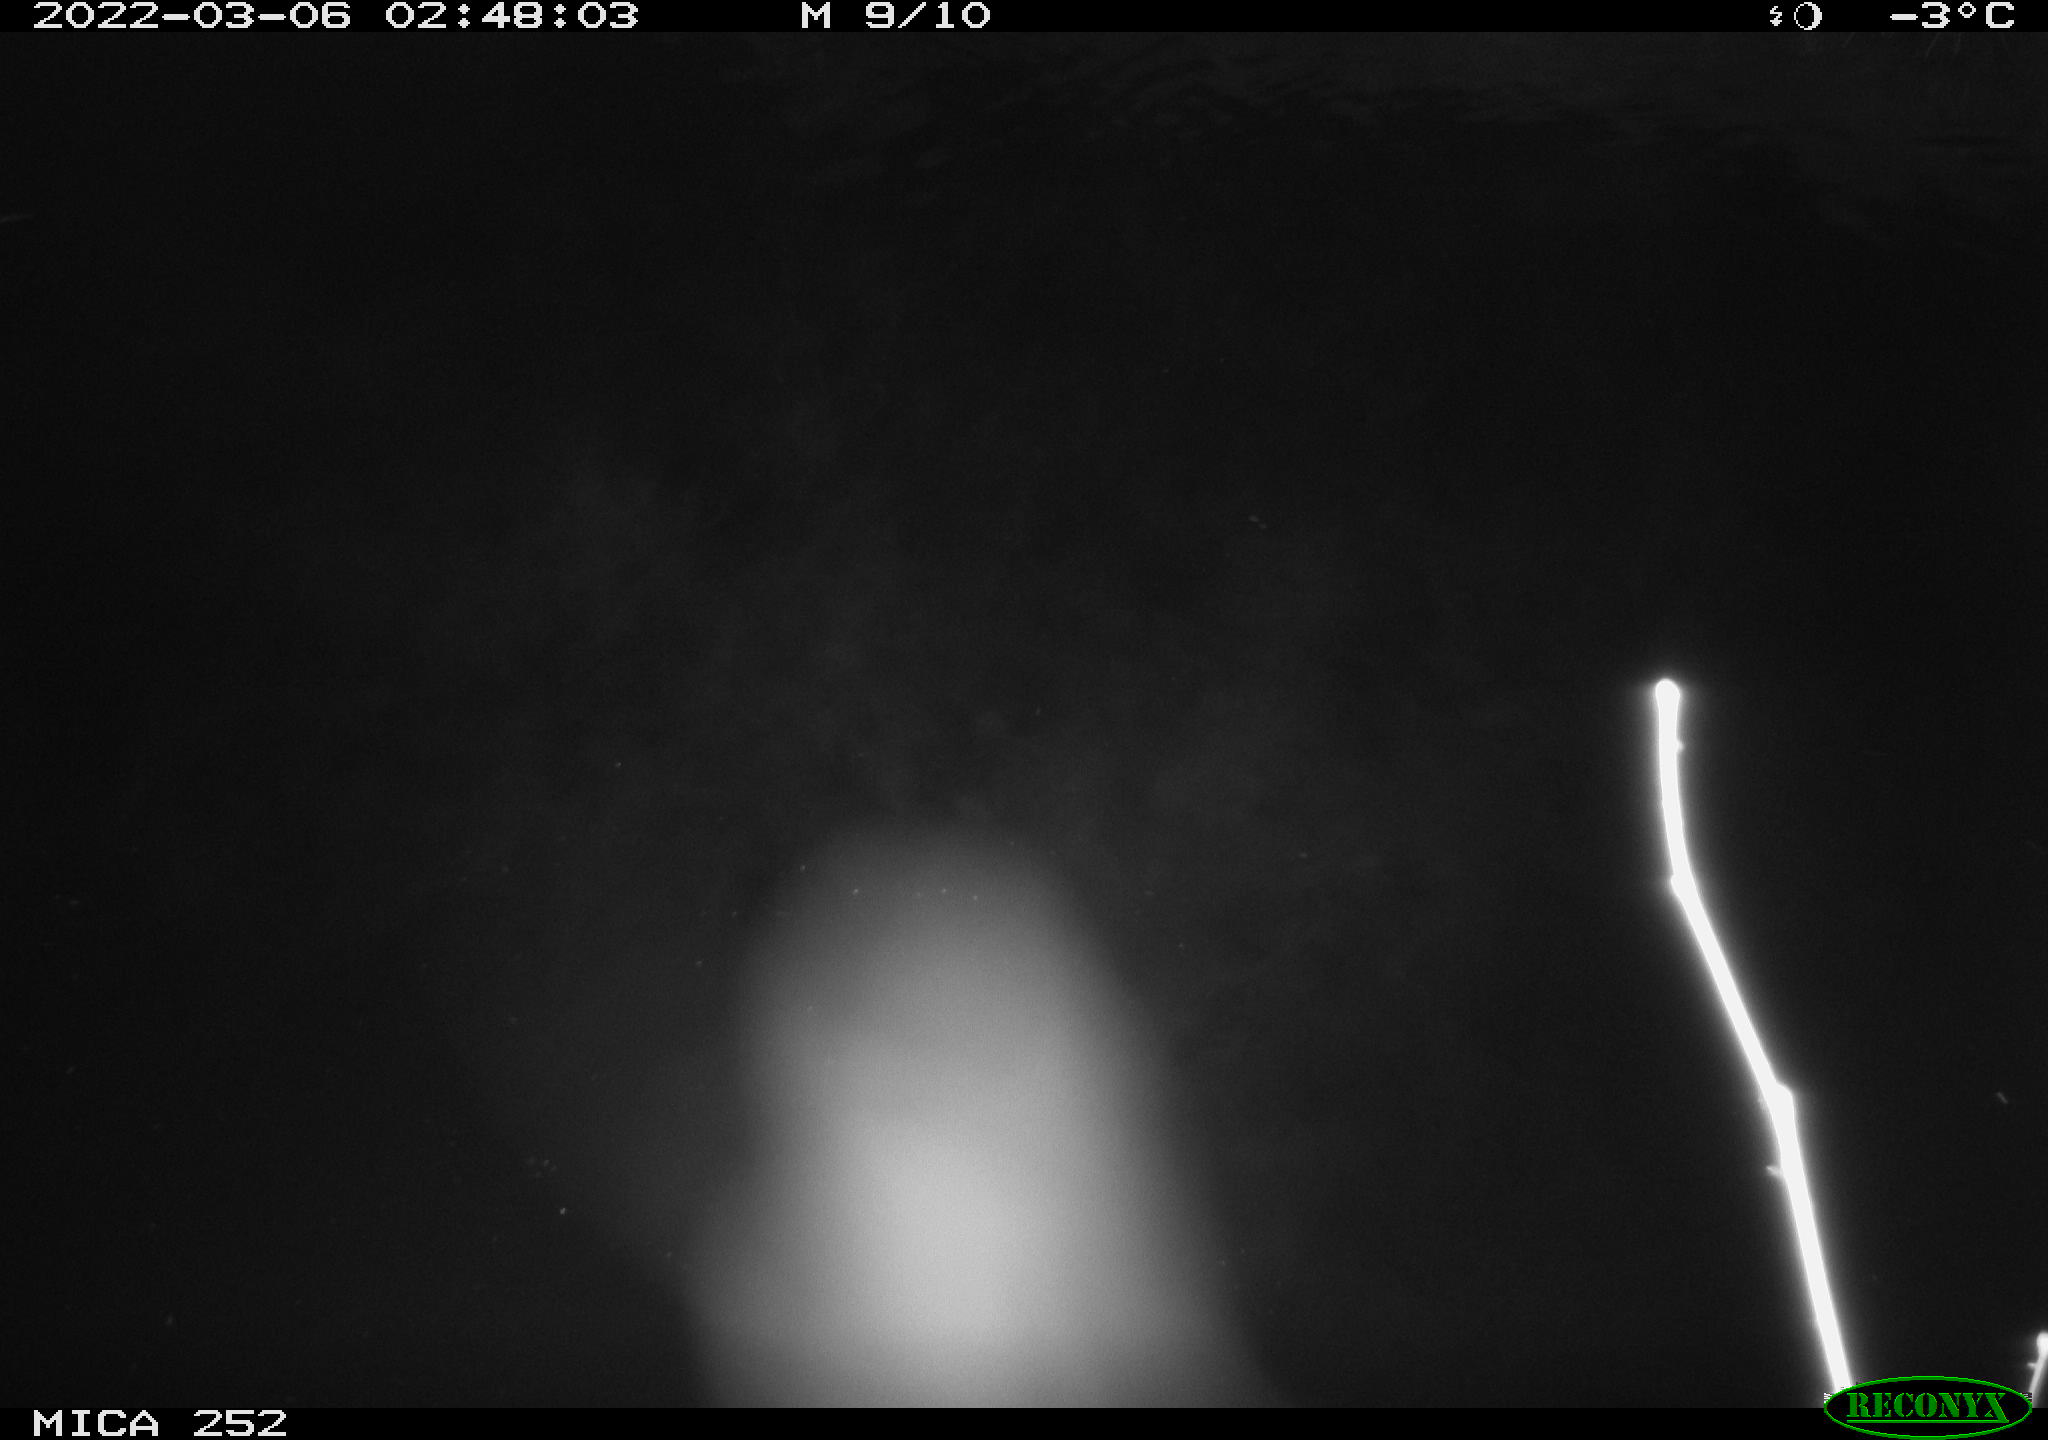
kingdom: Animalia
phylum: Chordata
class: Mammalia
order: Rodentia
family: Castoridae
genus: Castor
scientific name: Castor fiber
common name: Eurasian beaver
